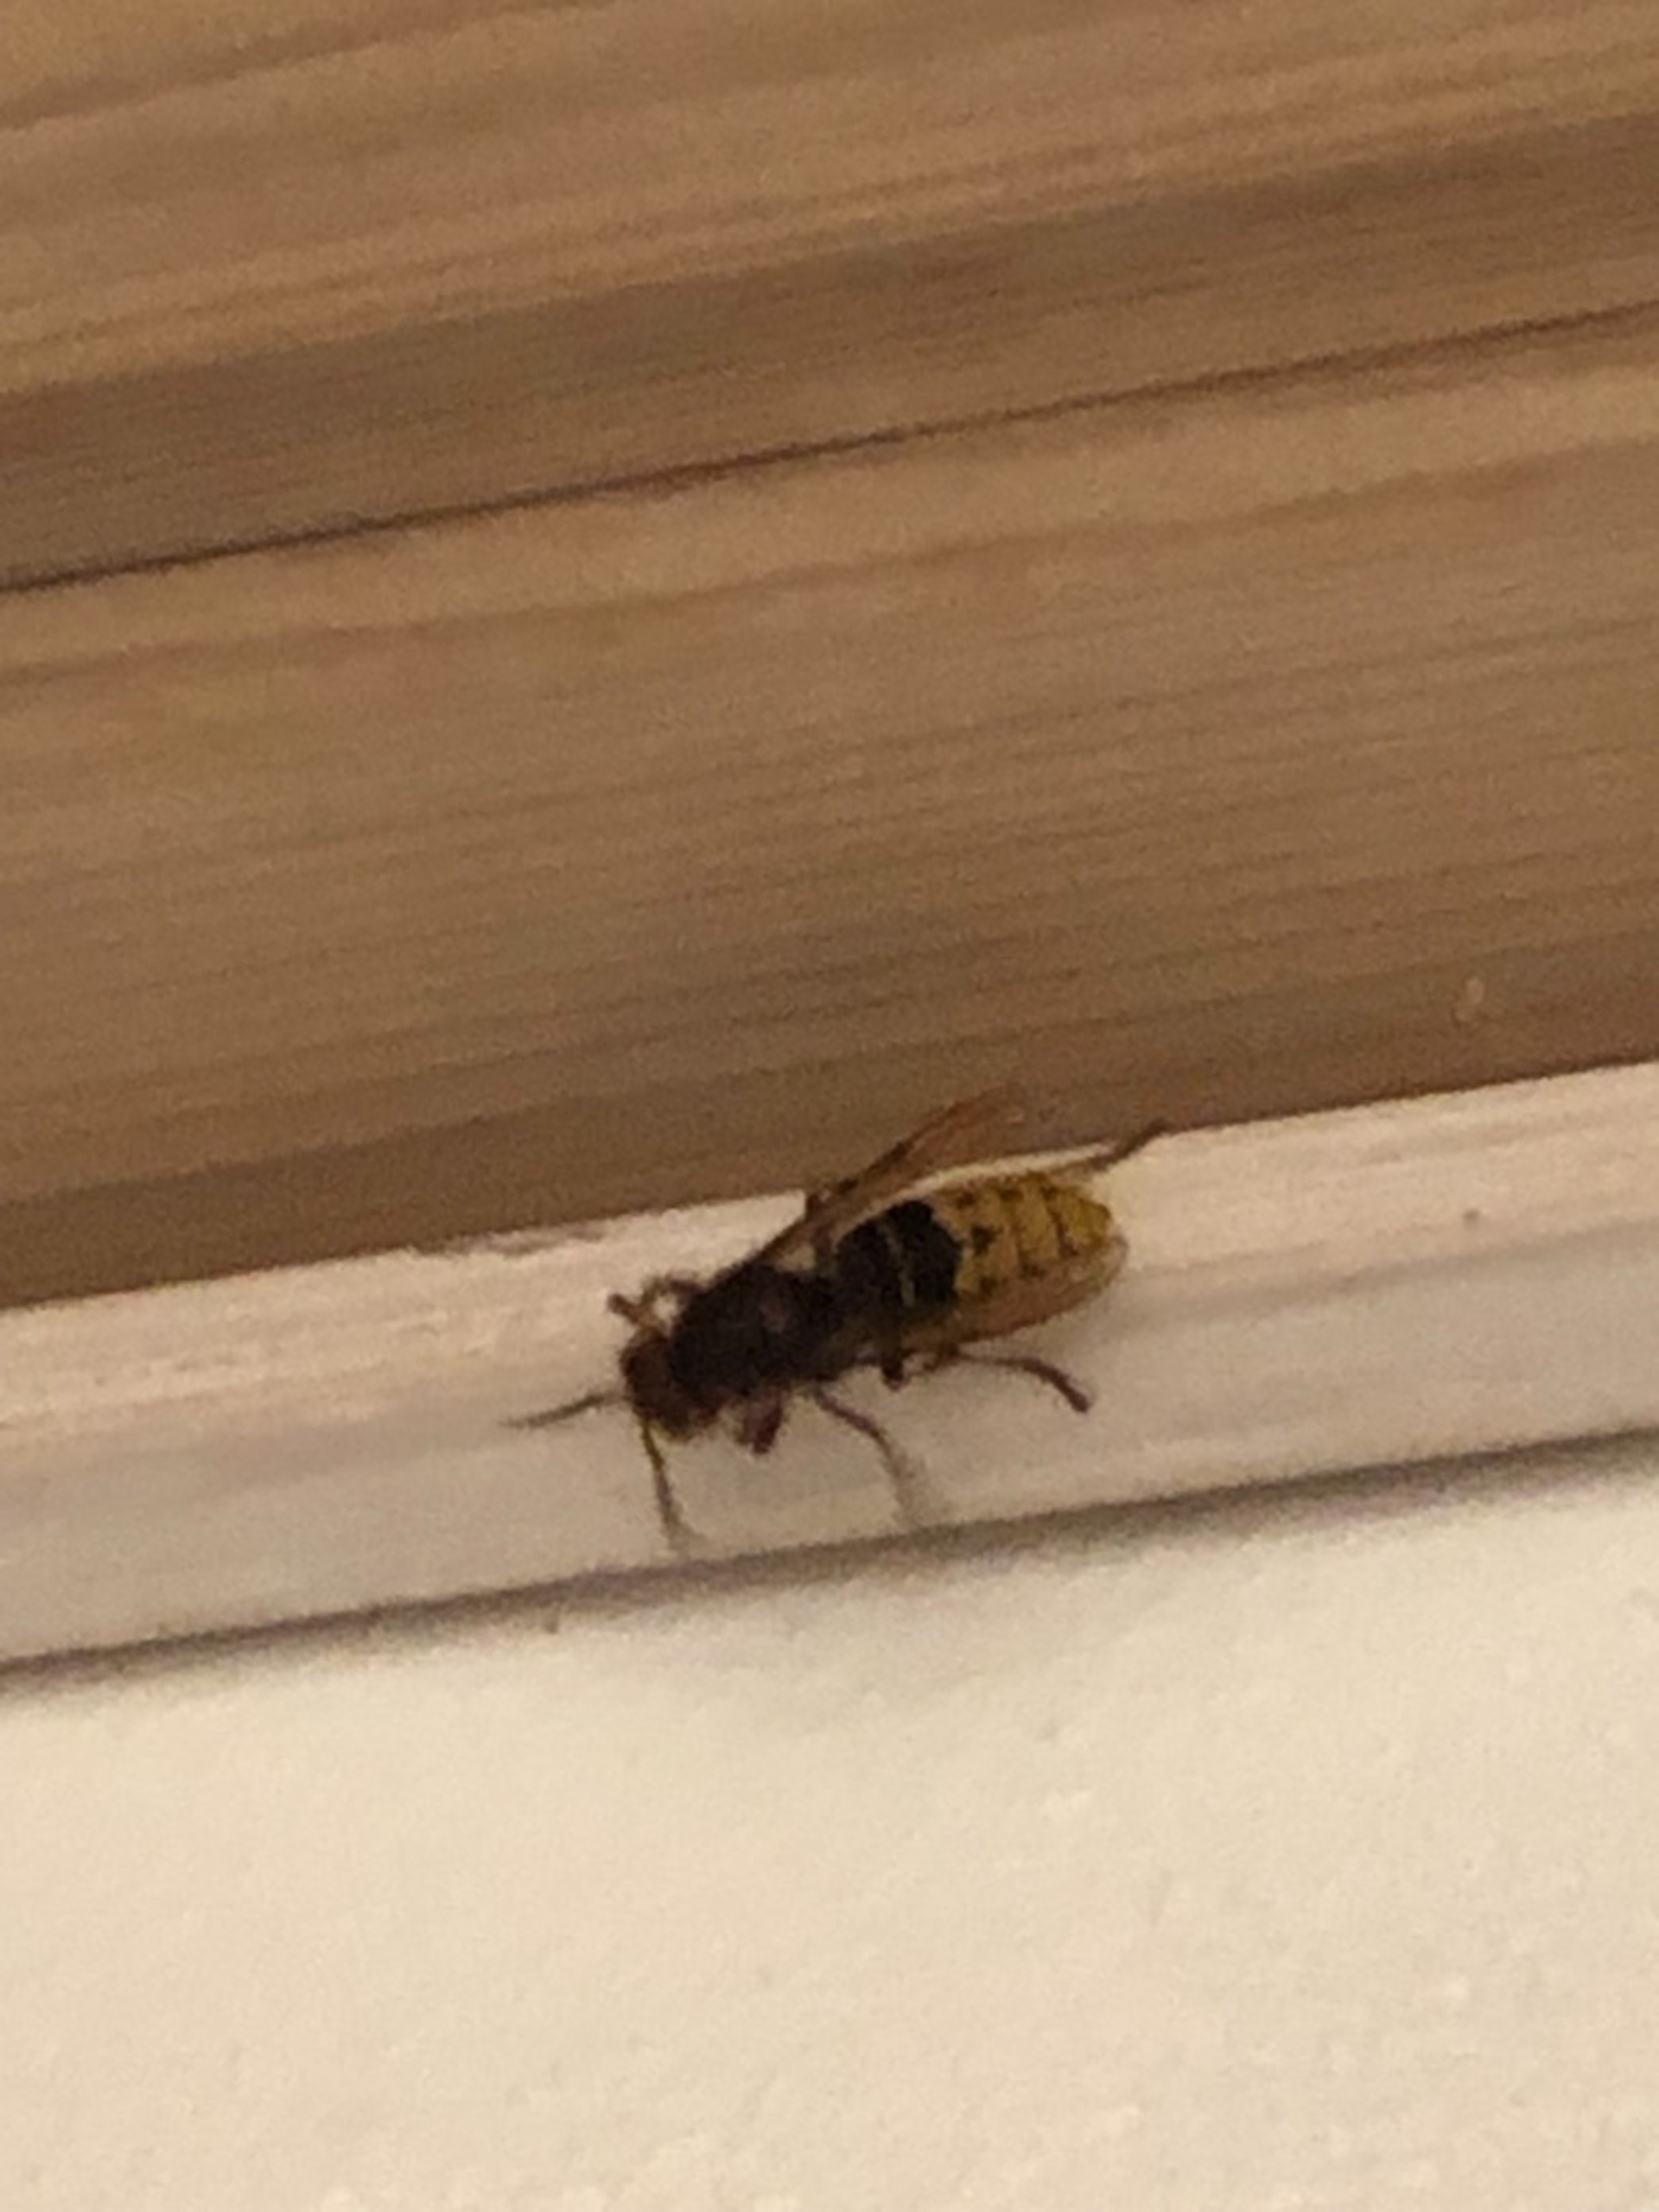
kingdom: Animalia
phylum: Arthropoda
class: Insecta
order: Hymenoptera
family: Vespidae
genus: Vespa
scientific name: Vespa crabro
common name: Stor gedehams
